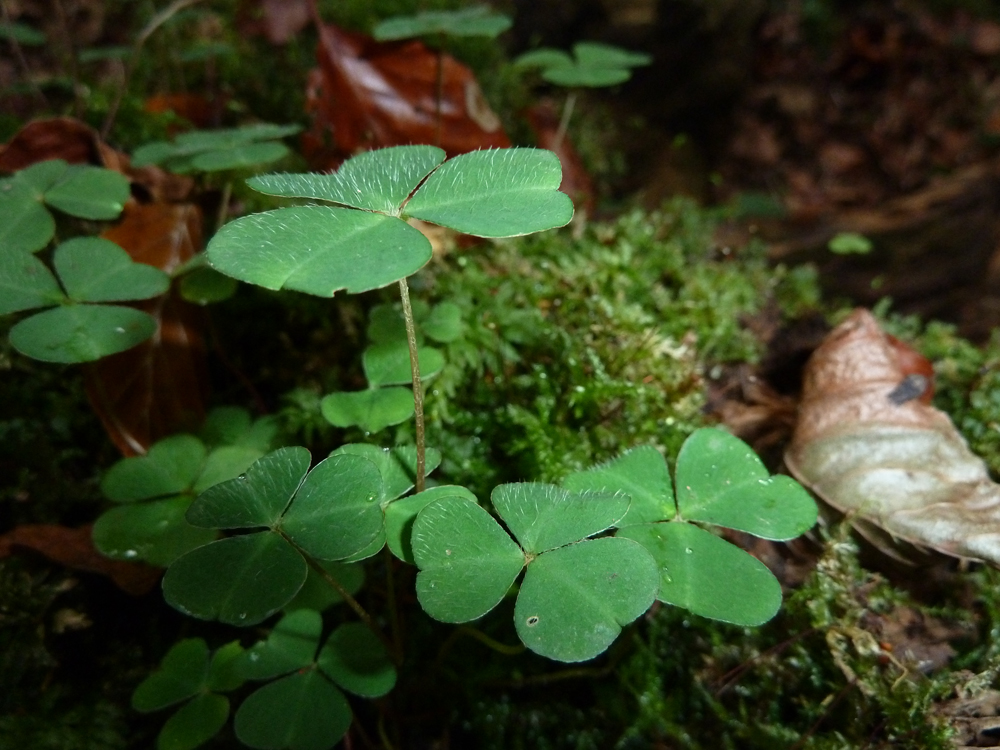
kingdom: Plantae
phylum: Tracheophyta
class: Magnoliopsida
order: Oxalidales
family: Oxalidaceae
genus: Oxalis
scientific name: Oxalis acetosella
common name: Wood-sorrel
